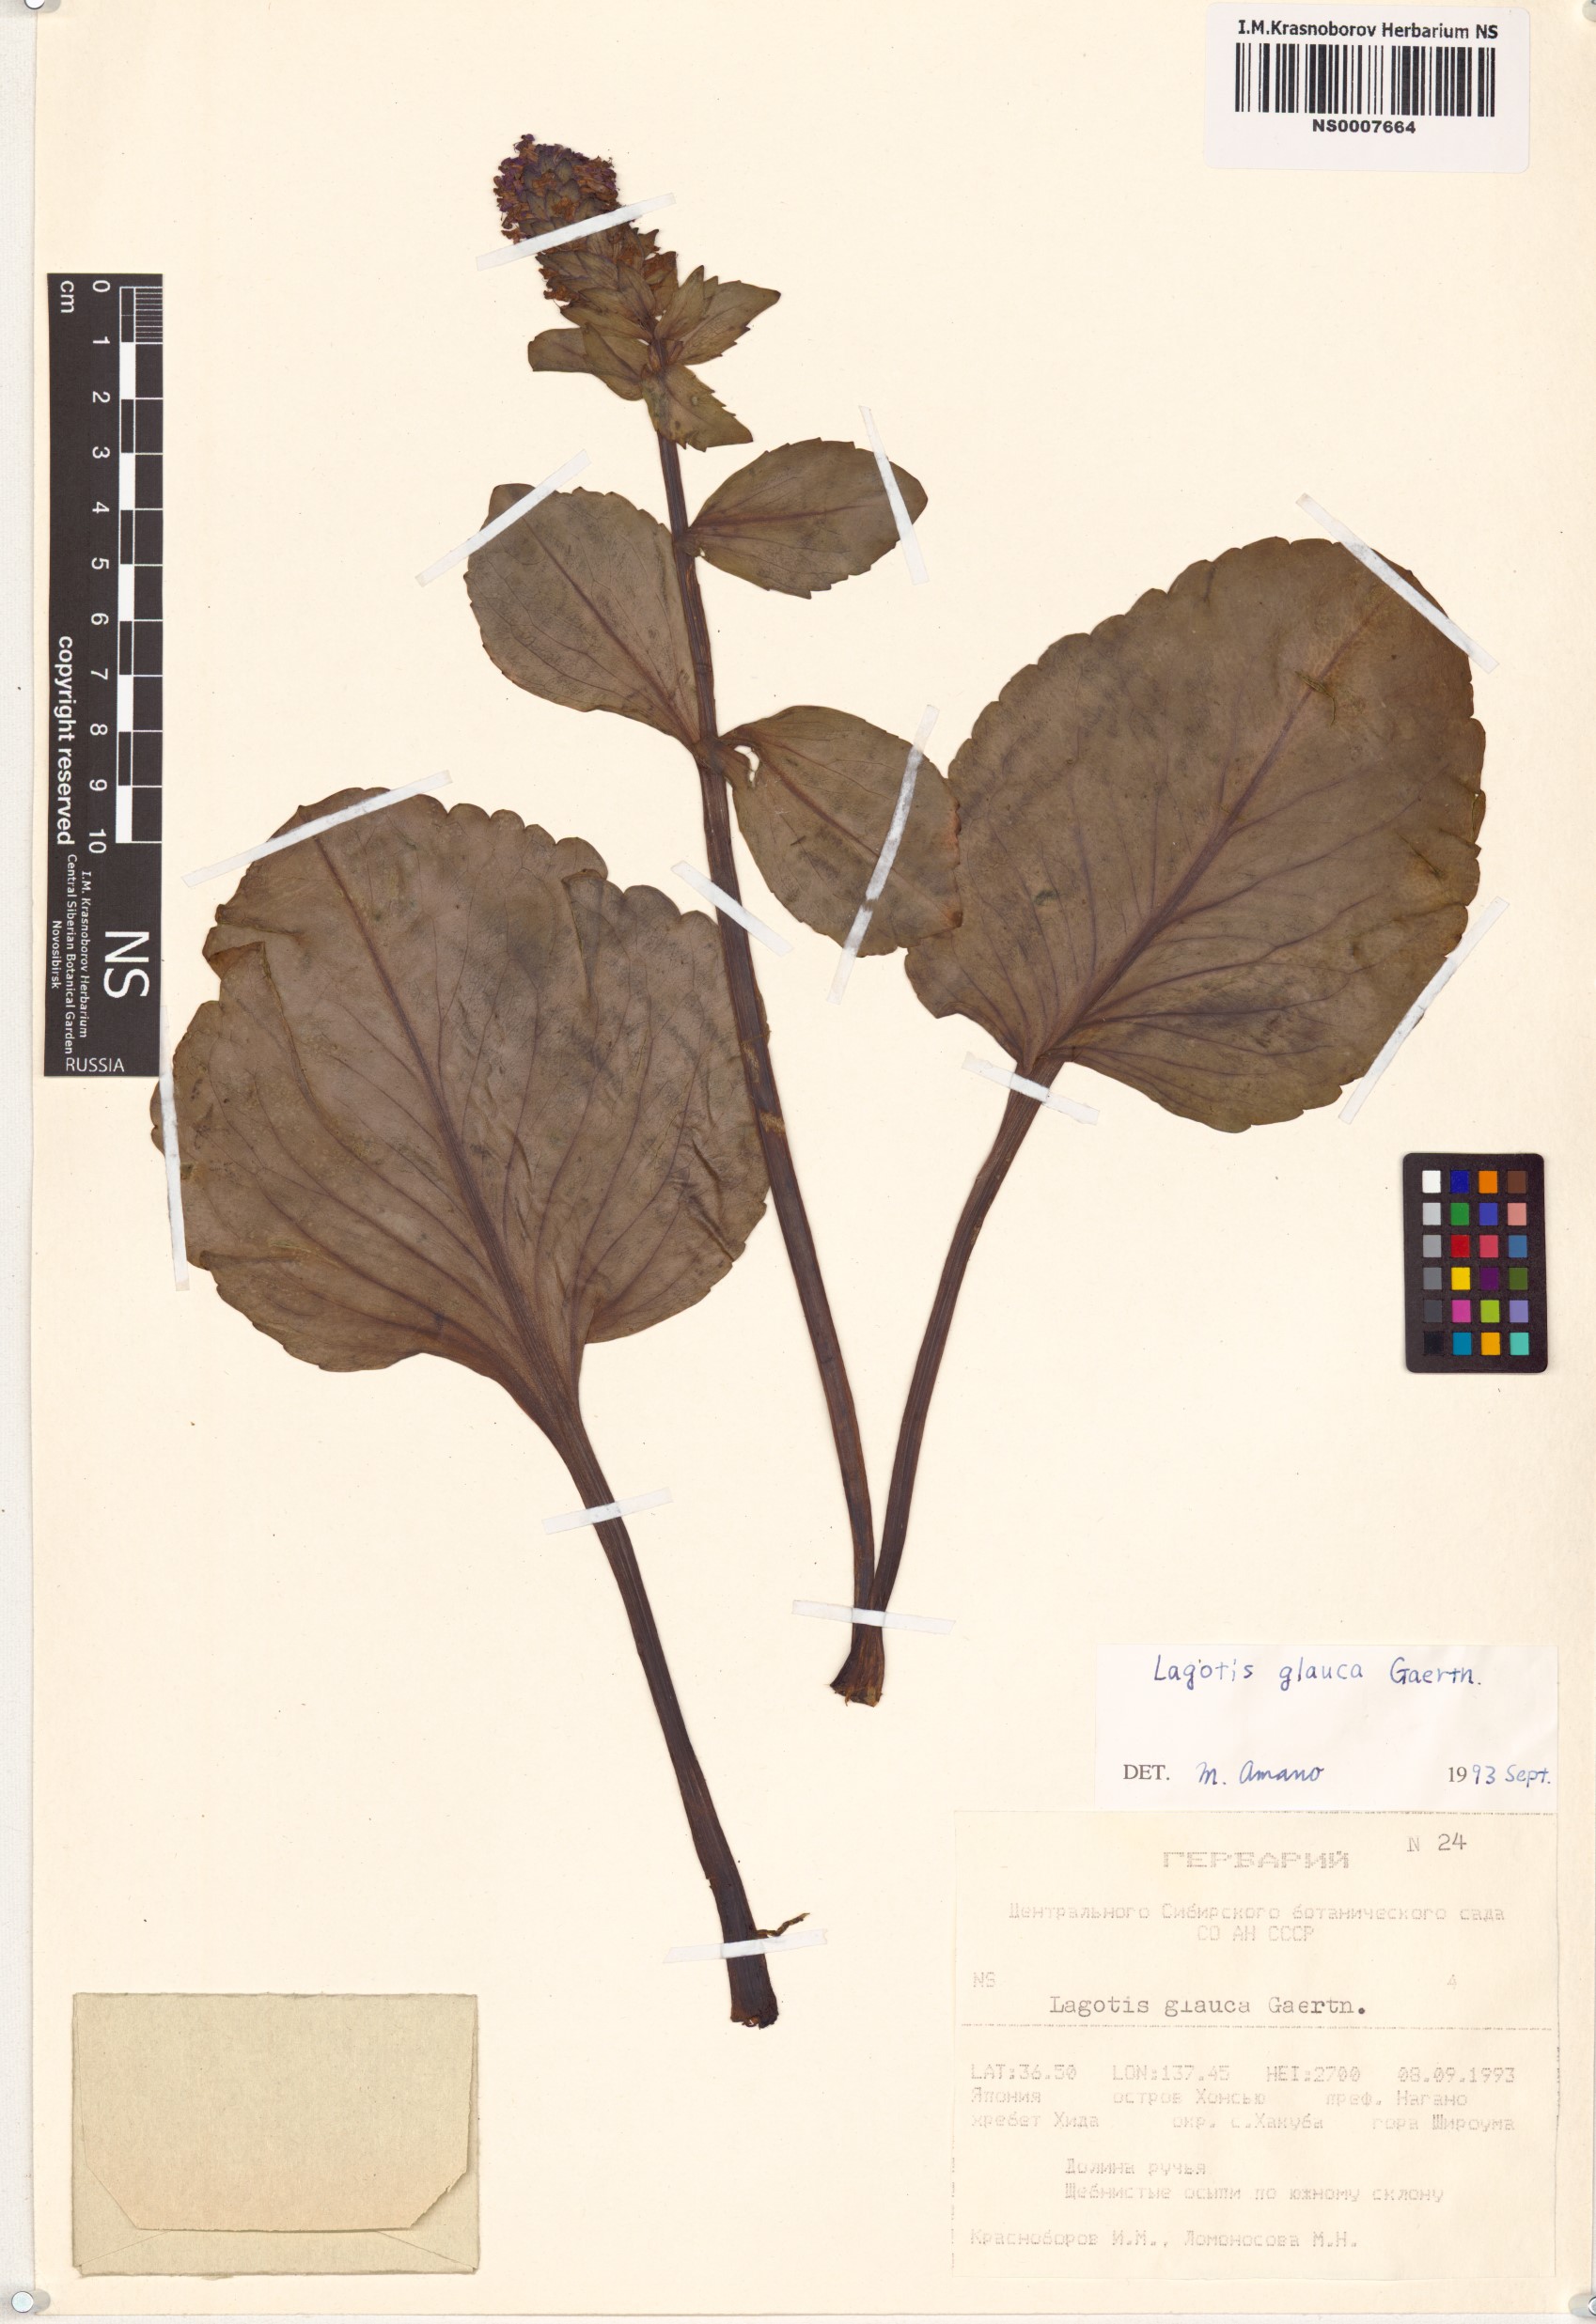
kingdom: Plantae
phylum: Tracheophyta
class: Magnoliopsida
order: Lamiales
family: Plantaginaceae
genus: Lagotis
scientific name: Lagotis glauca
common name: Glaucous weaselsnout
